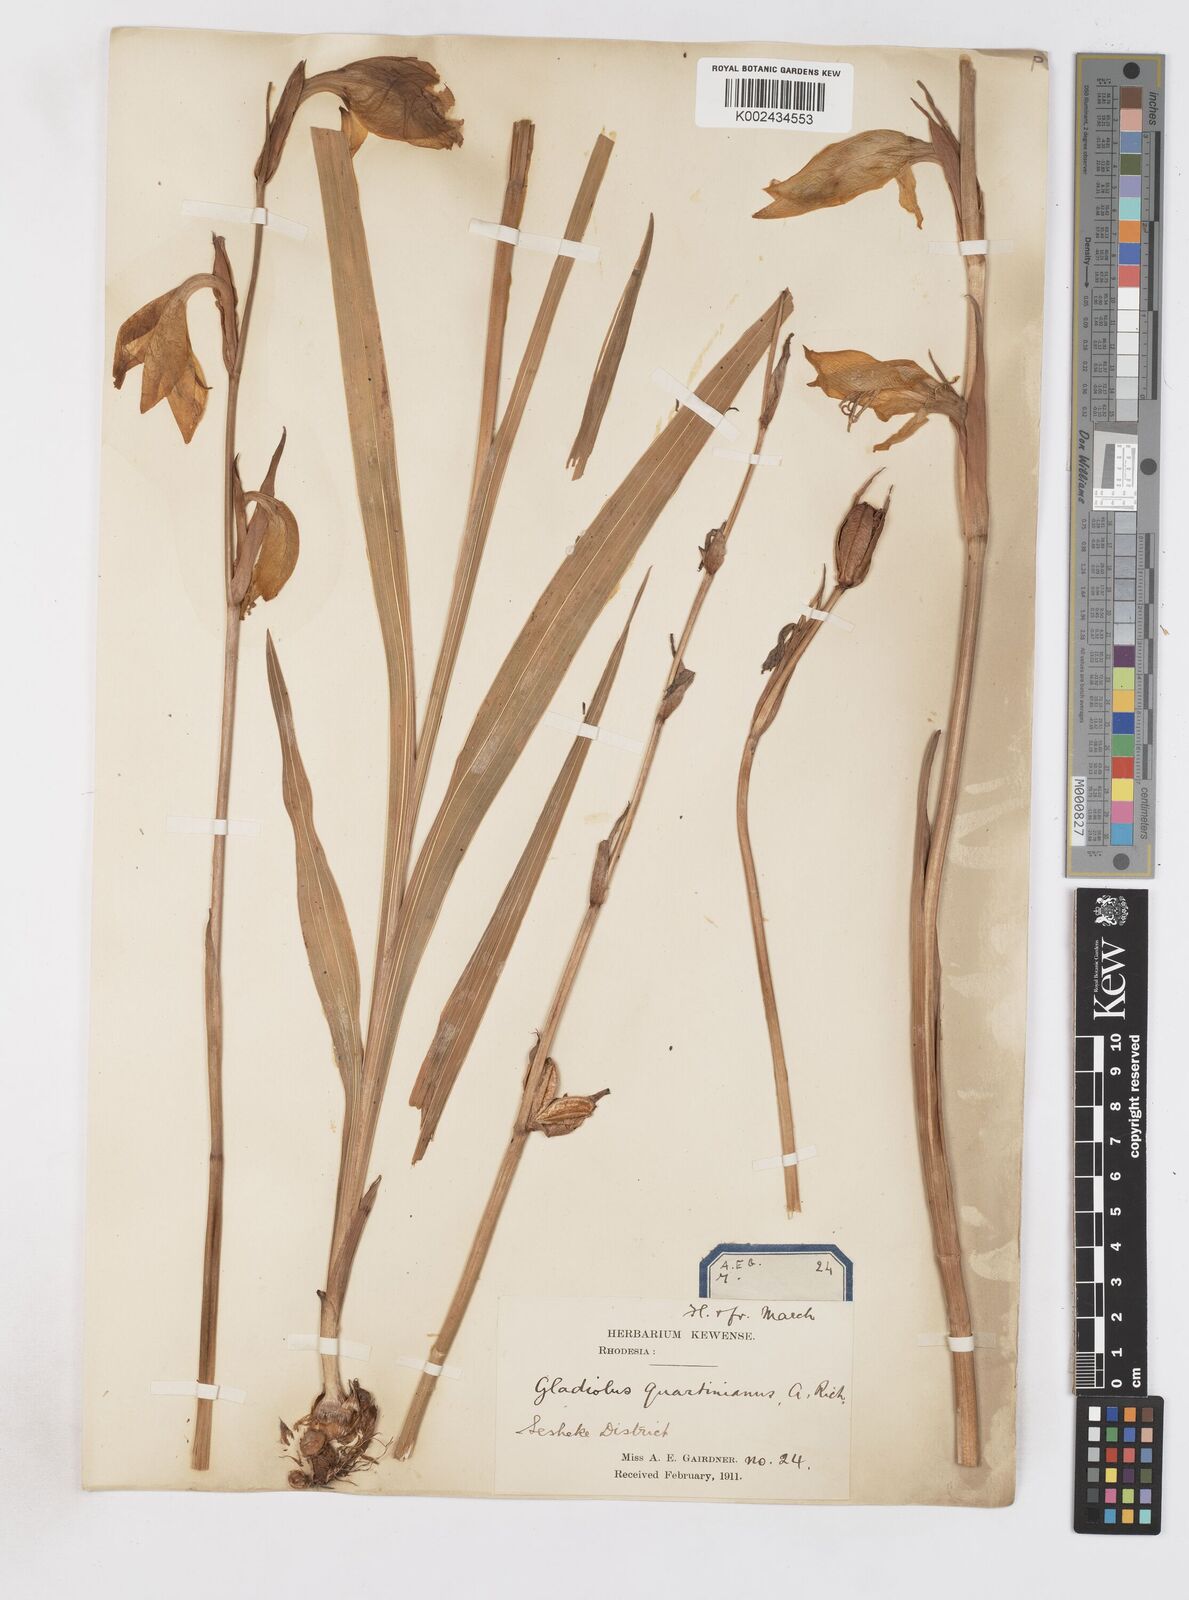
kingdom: Plantae
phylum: Tracheophyta
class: Liliopsida
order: Asparagales
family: Iridaceae
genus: Gladiolus
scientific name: Gladiolus dalenii
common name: Cornflag
